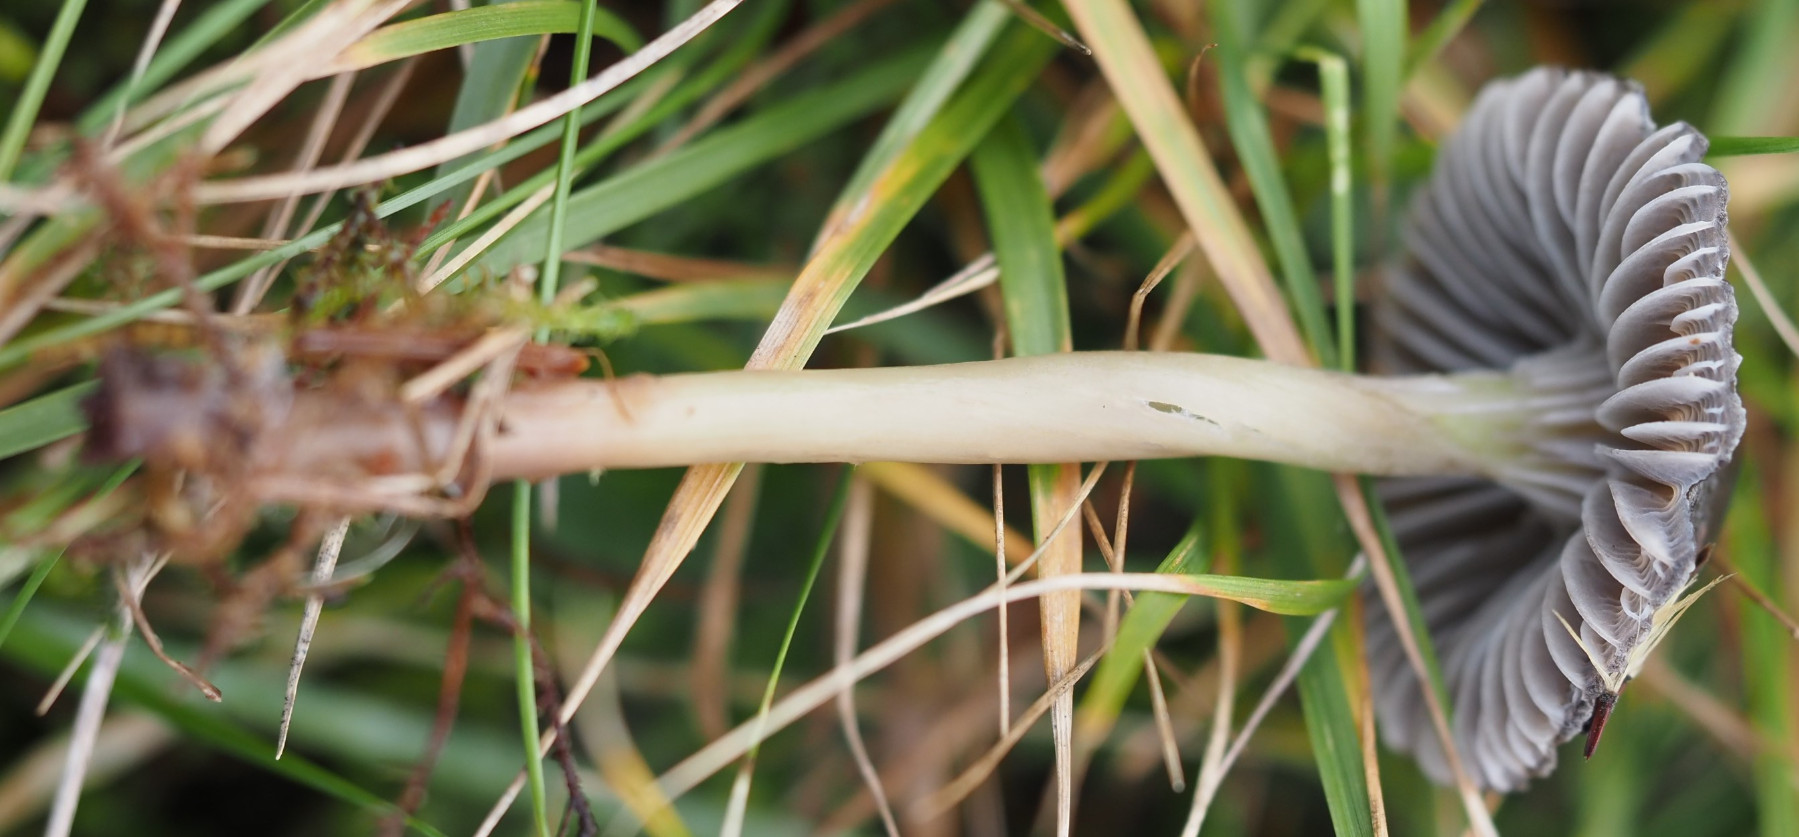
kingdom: Fungi
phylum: Basidiomycota
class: Agaricomycetes
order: Agaricales
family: Mycenaceae
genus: Mycena
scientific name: Mycena aetites
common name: plæne-huesvamp
